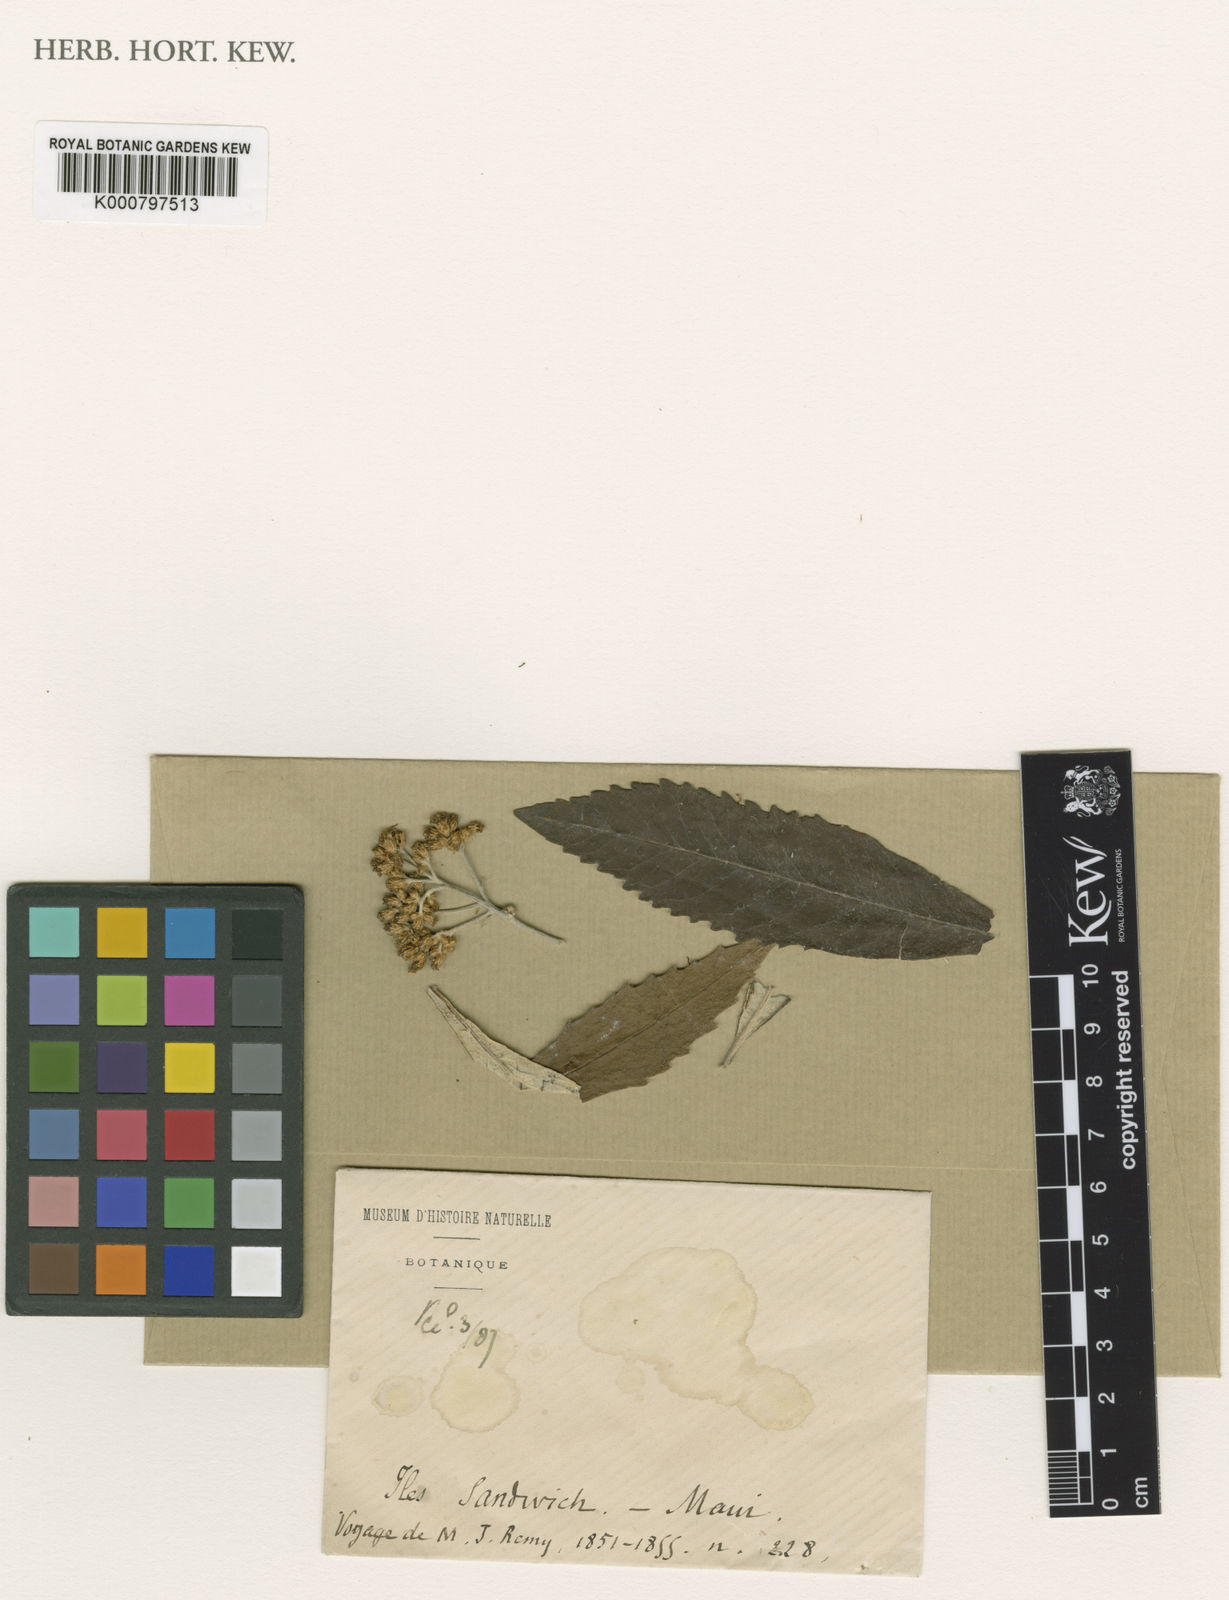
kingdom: Plantae
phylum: Tracheophyta
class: Magnoliopsida
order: Asterales
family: Asteraceae
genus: Remya
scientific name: Remya mauiensis
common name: Maui remya
